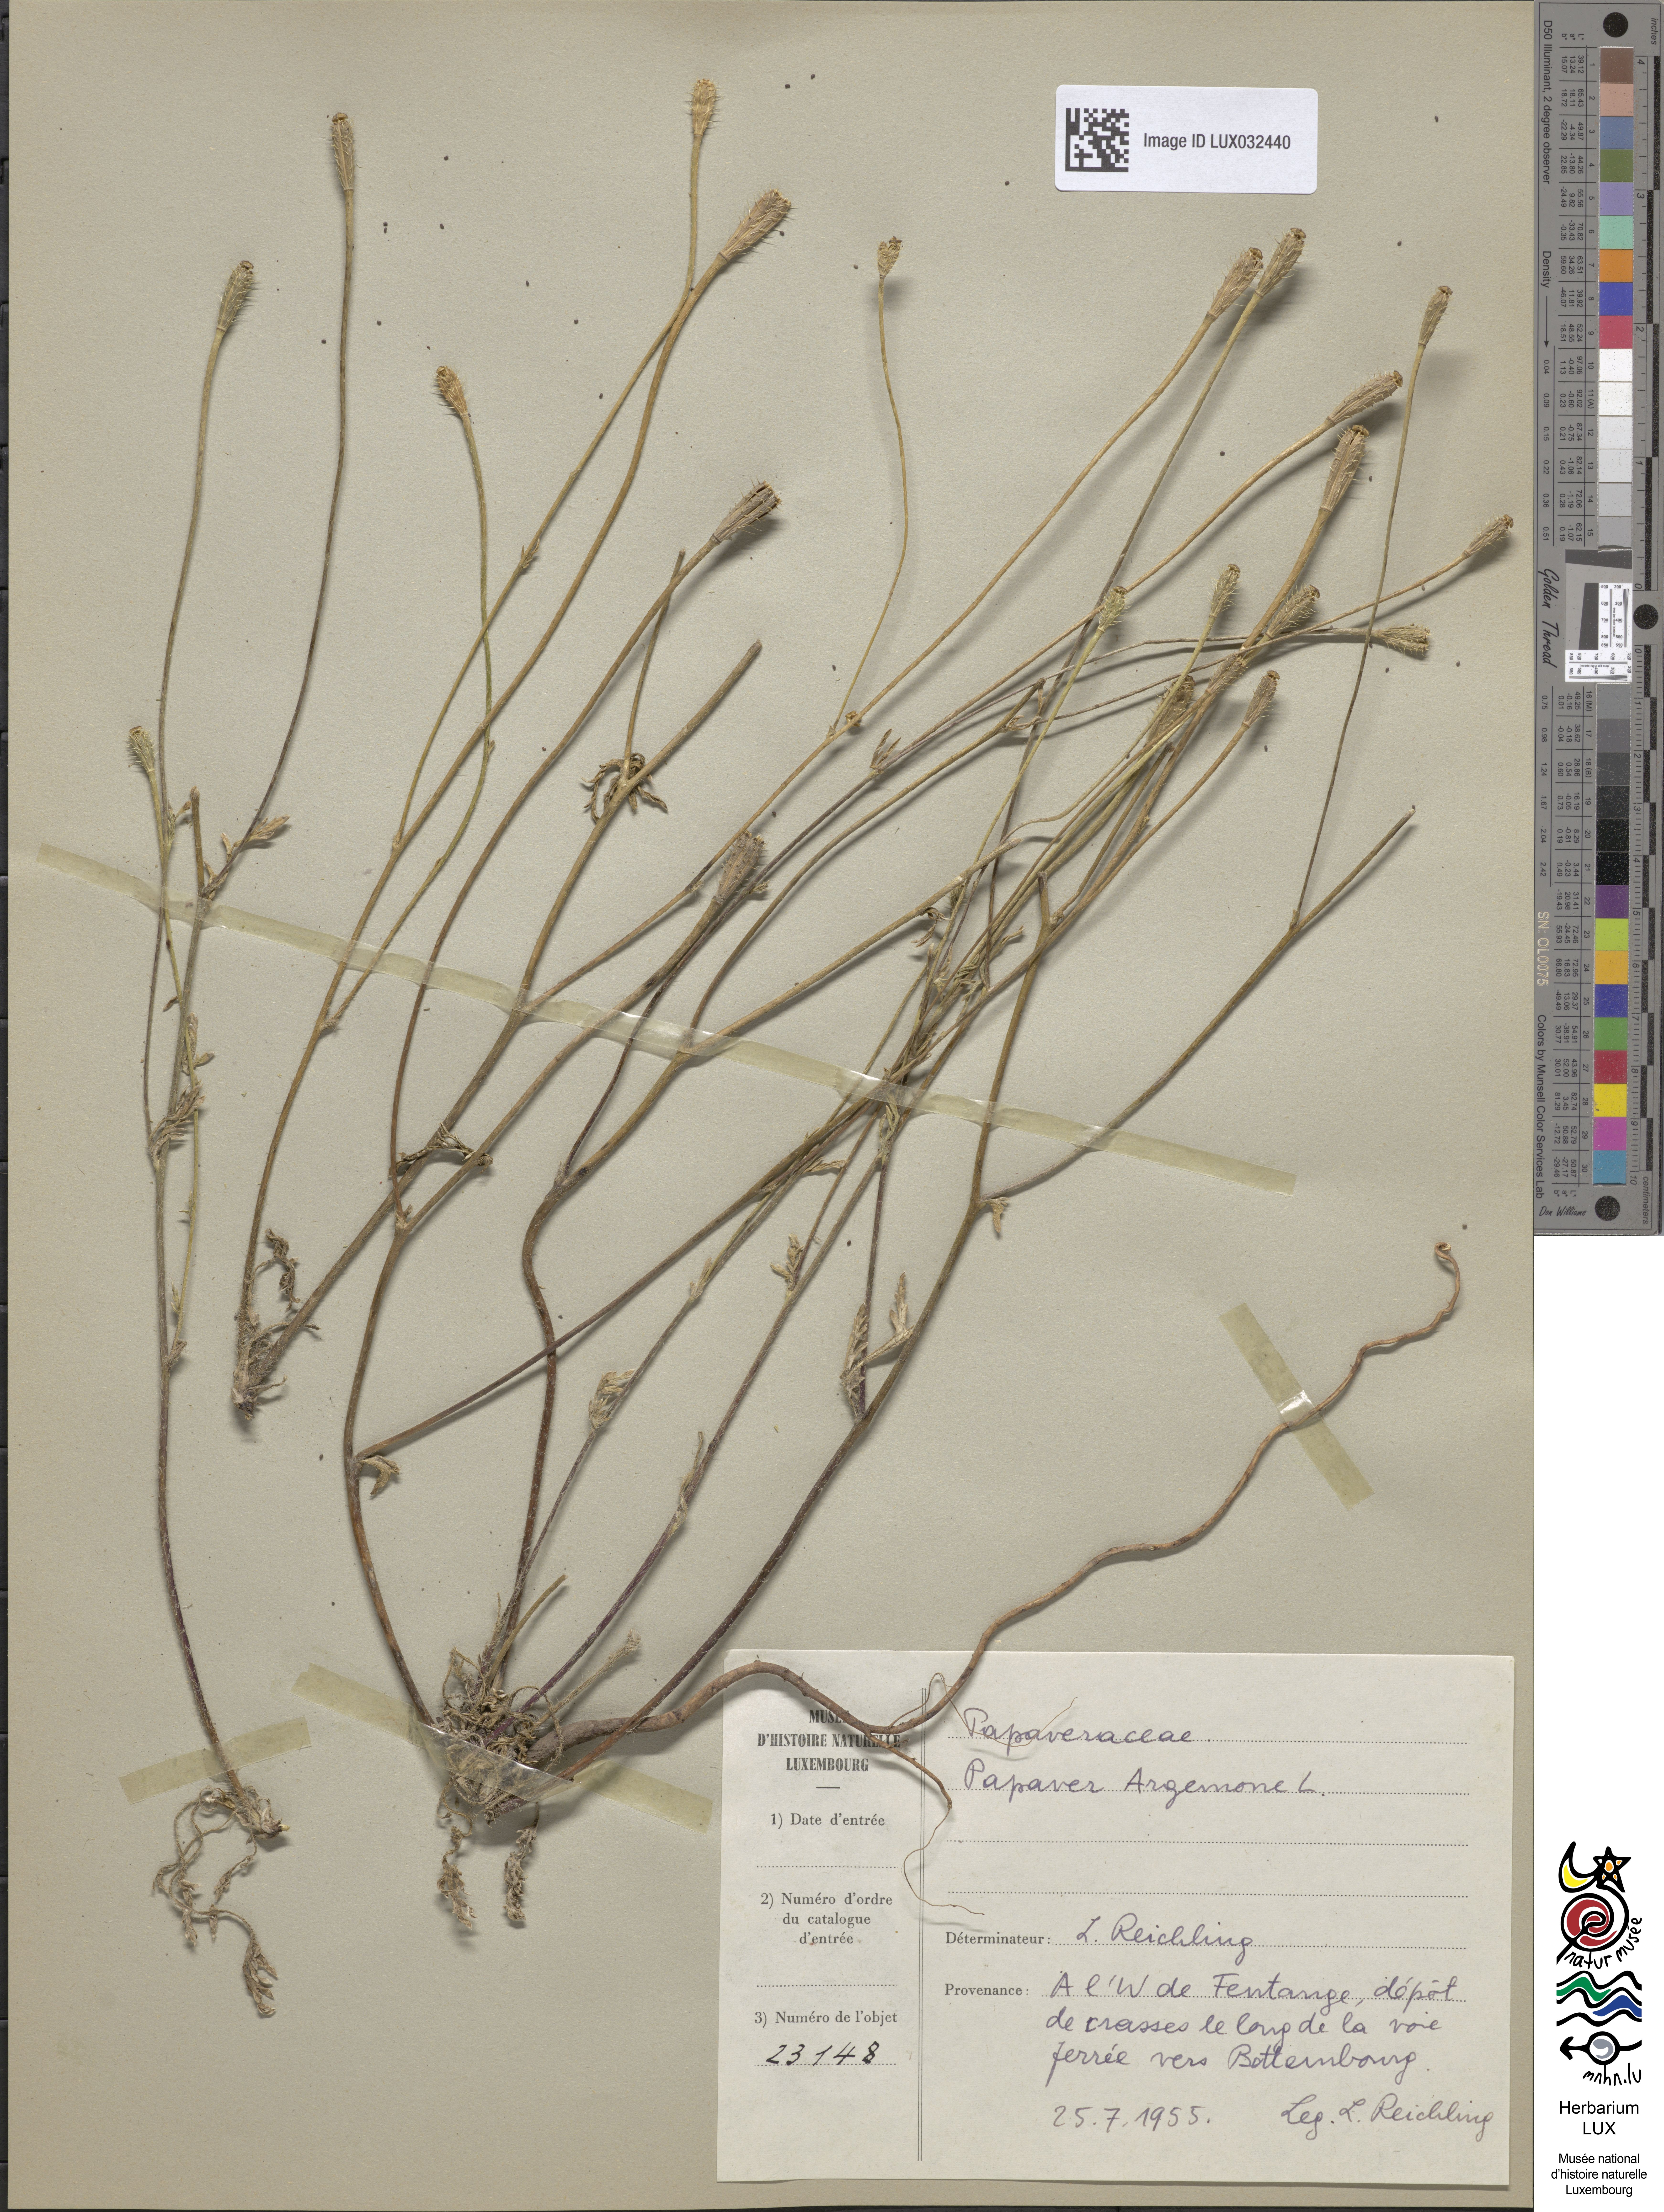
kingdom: Plantae
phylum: Tracheophyta
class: Magnoliopsida
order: Ranunculales
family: Papaveraceae
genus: Roemeria
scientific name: Roemeria argemone
